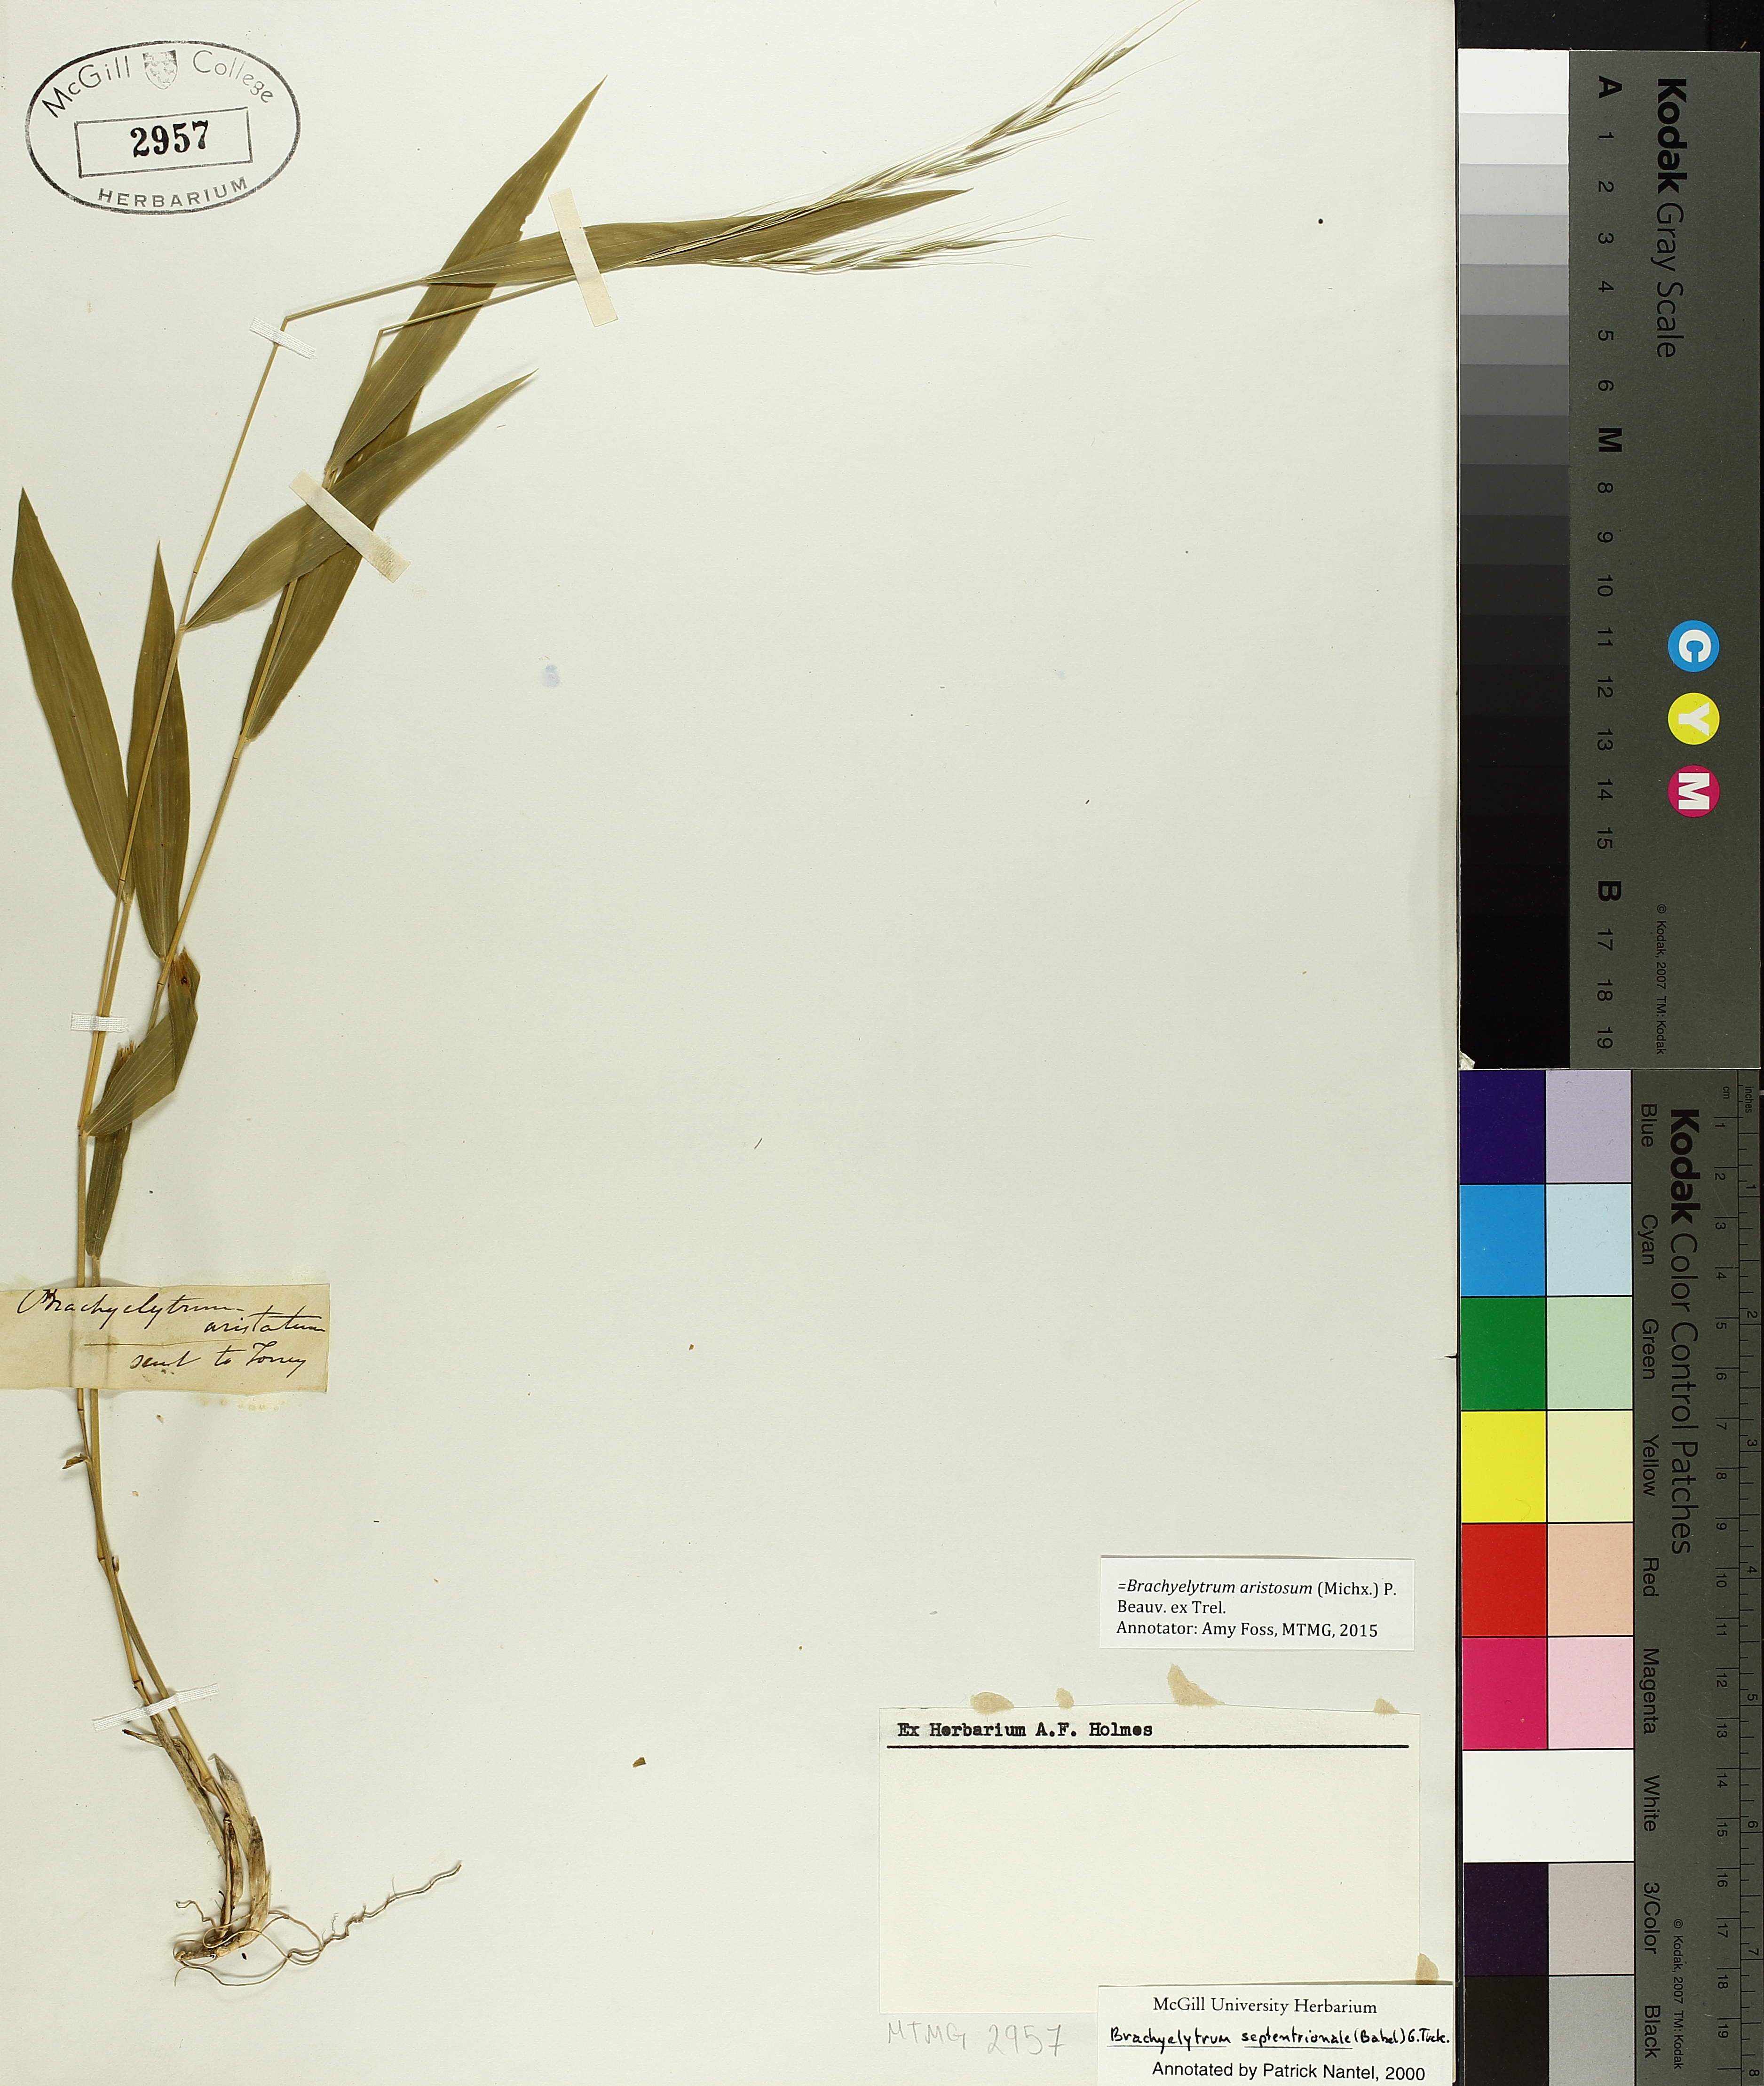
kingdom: Plantae
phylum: Tracheophyta
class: Liliopsida
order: Poales
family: Poaceae
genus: Brachyelytrum
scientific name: Brachyelytrum aristosum
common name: Northern shorthusk
